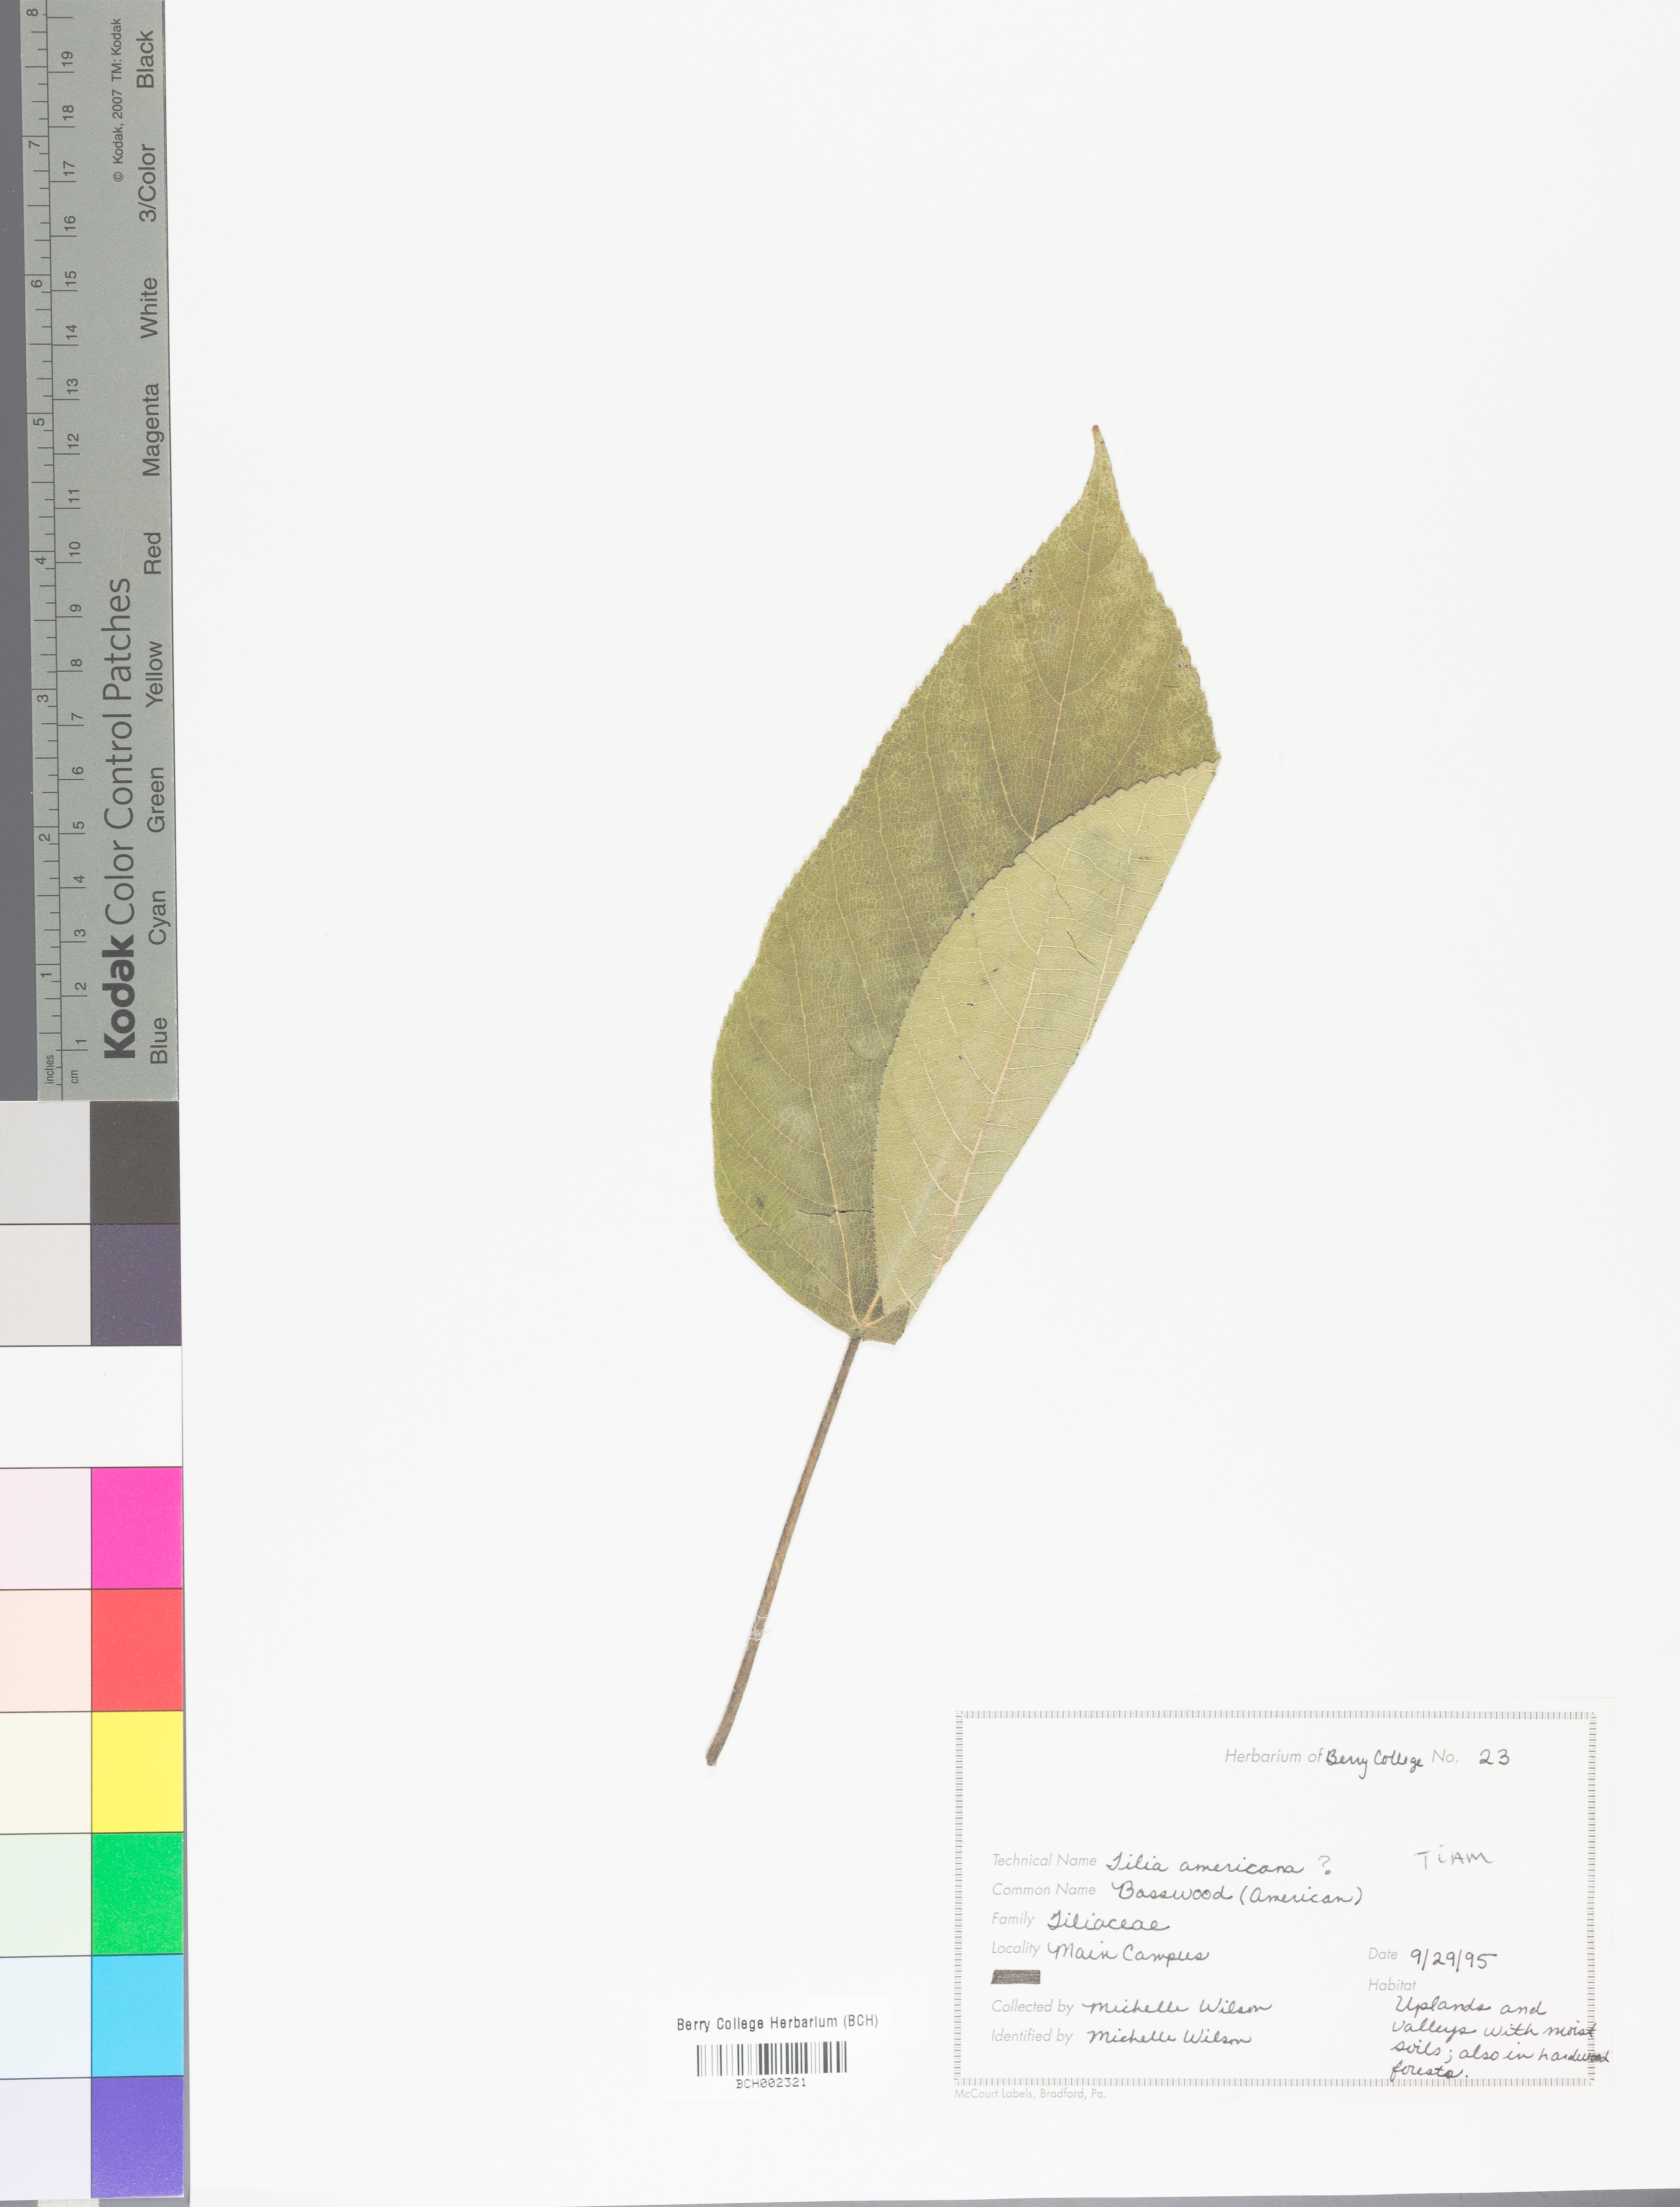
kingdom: Plantae
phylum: Tracheophyta
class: Magnoliopsida
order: Malvales
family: Malvaceae
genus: Tilia
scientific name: Tilia americana
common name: Basswood
